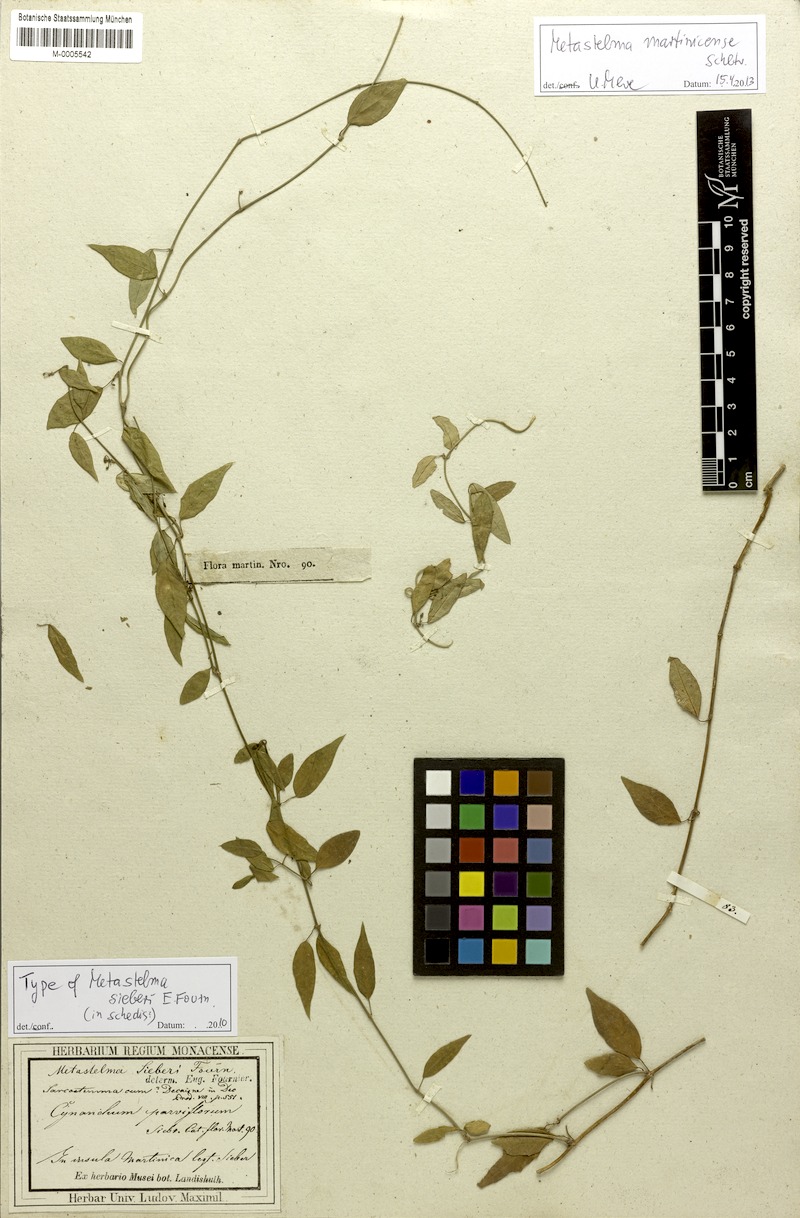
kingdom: Plantae
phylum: Tracheophyta
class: Magnoliopsida
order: Gentianales
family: Apocynaceae
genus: Metastelma
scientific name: Metastelma martinicense
